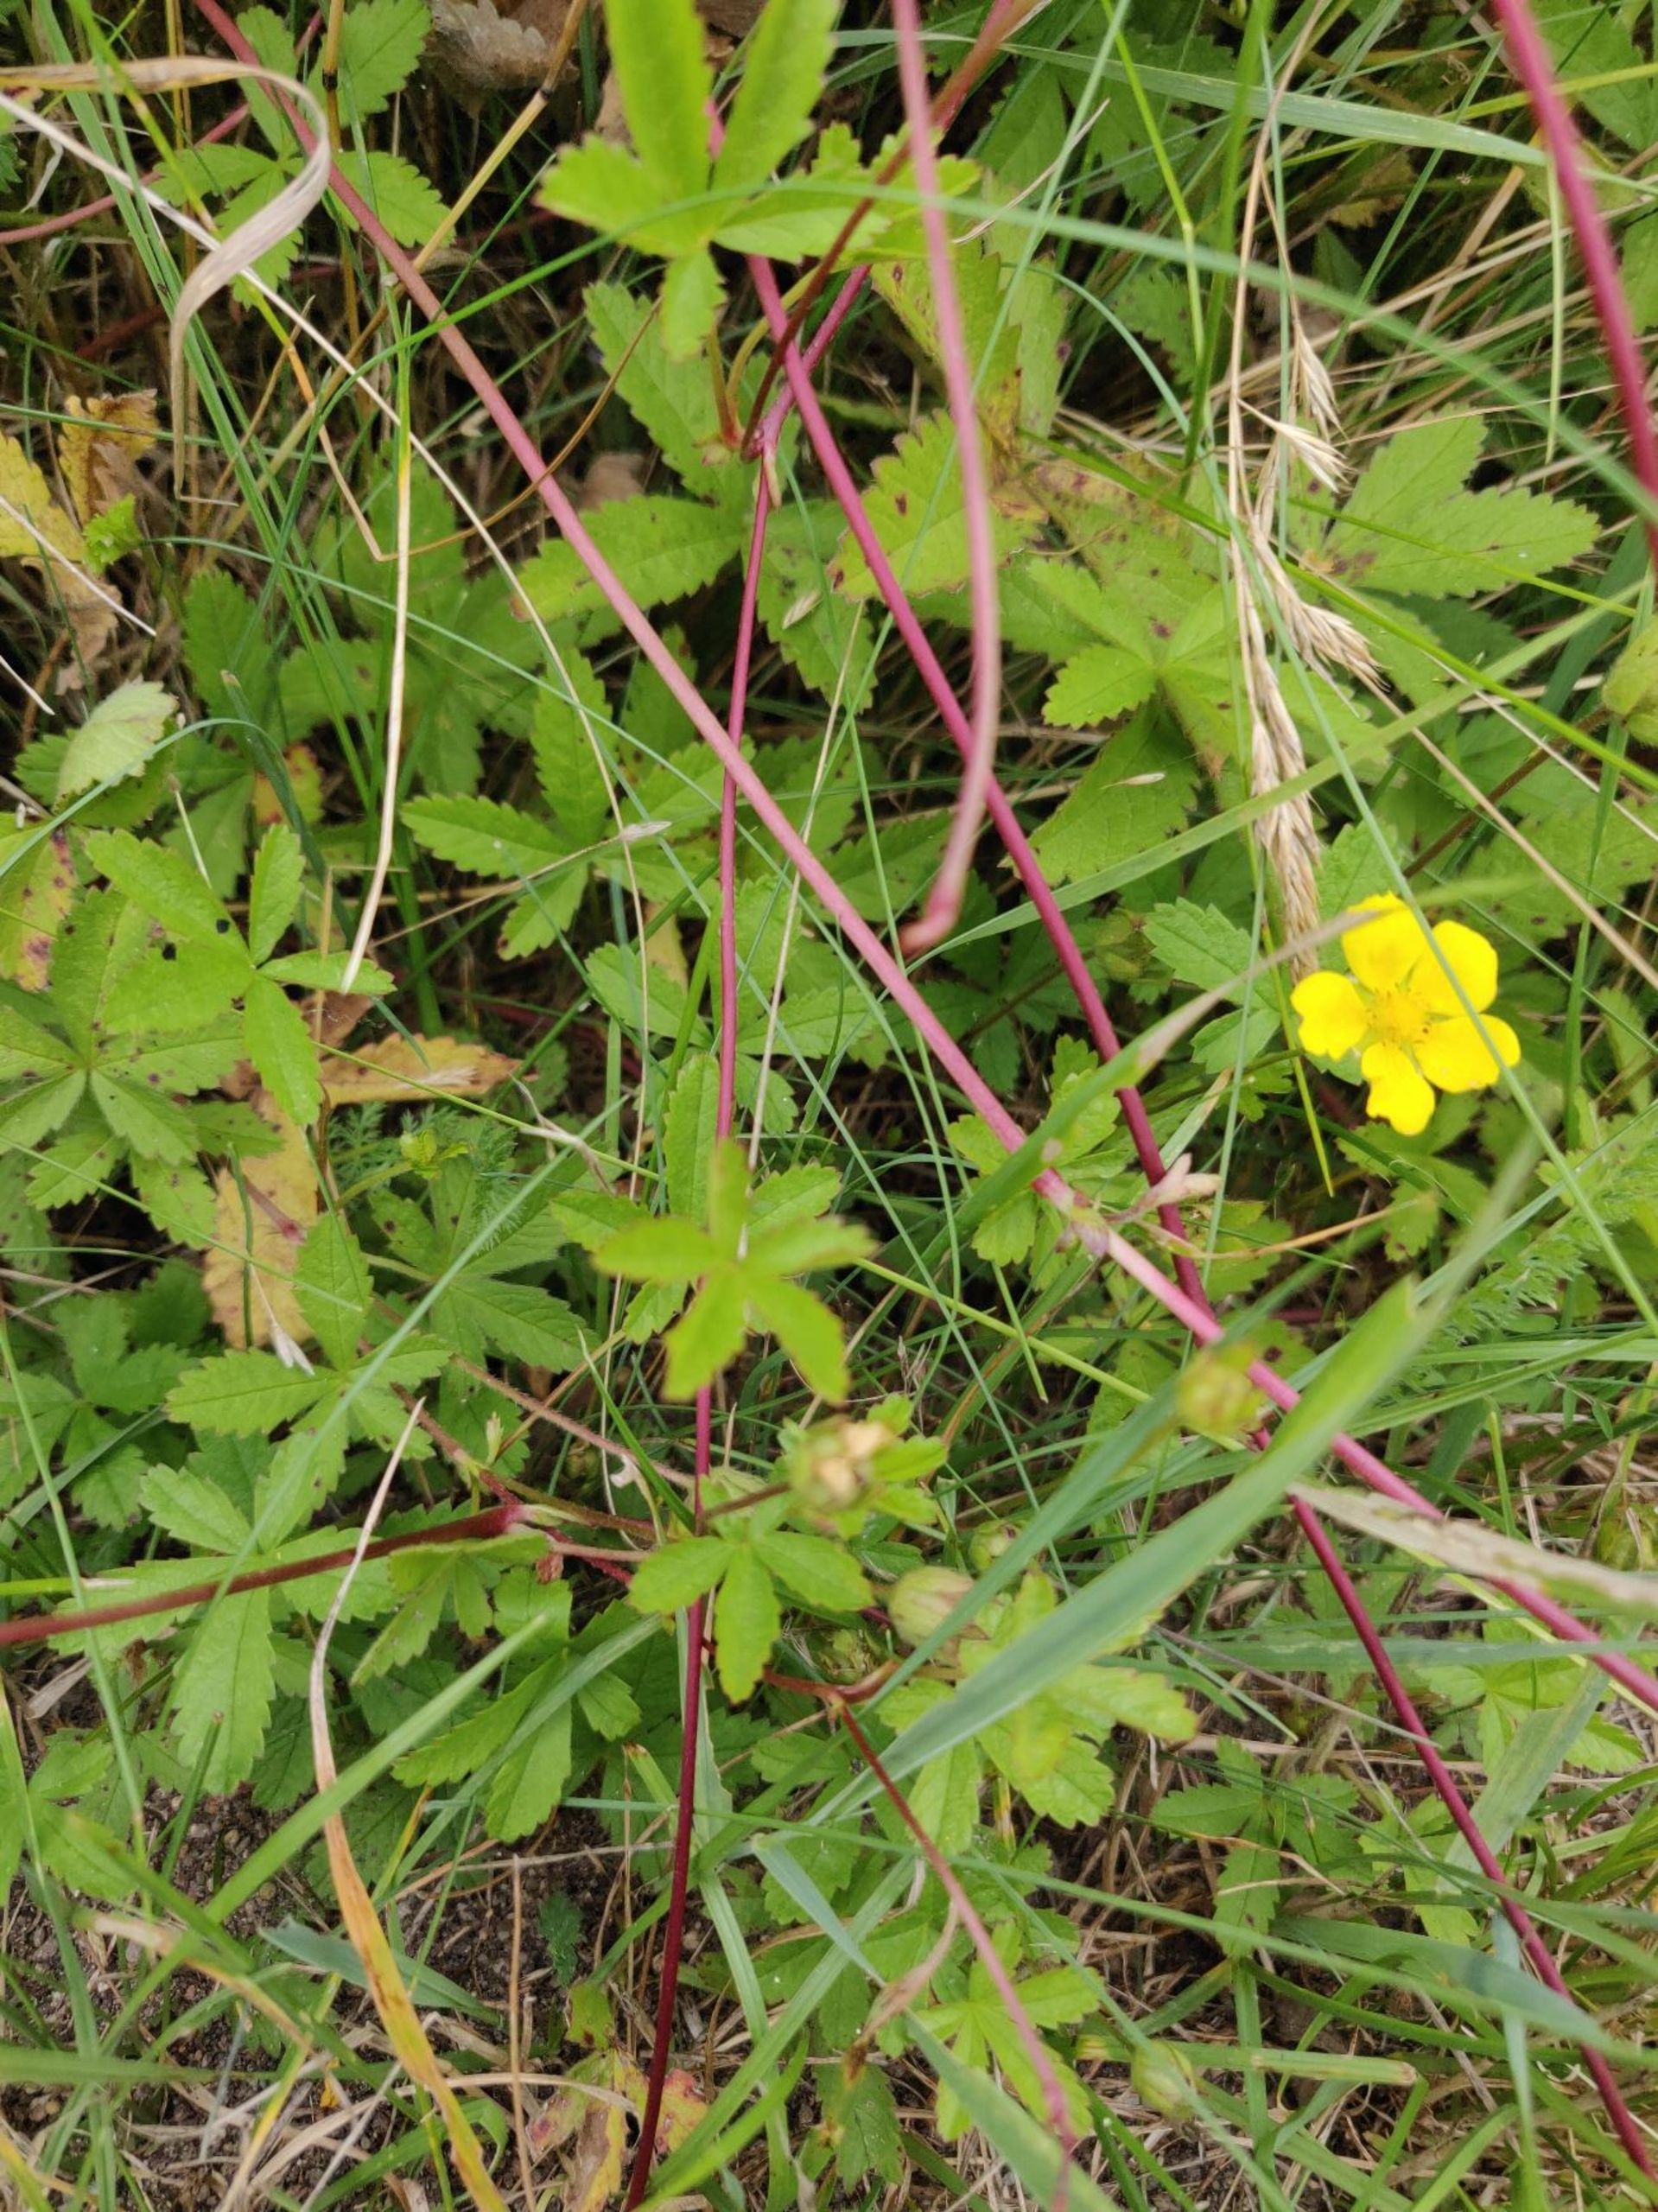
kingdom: Plantae
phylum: Tracheophyta
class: Magnoliopsida
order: Rosales
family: Rosaceae
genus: Potentilla
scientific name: Potentilla reptans
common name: Krybende potentil
